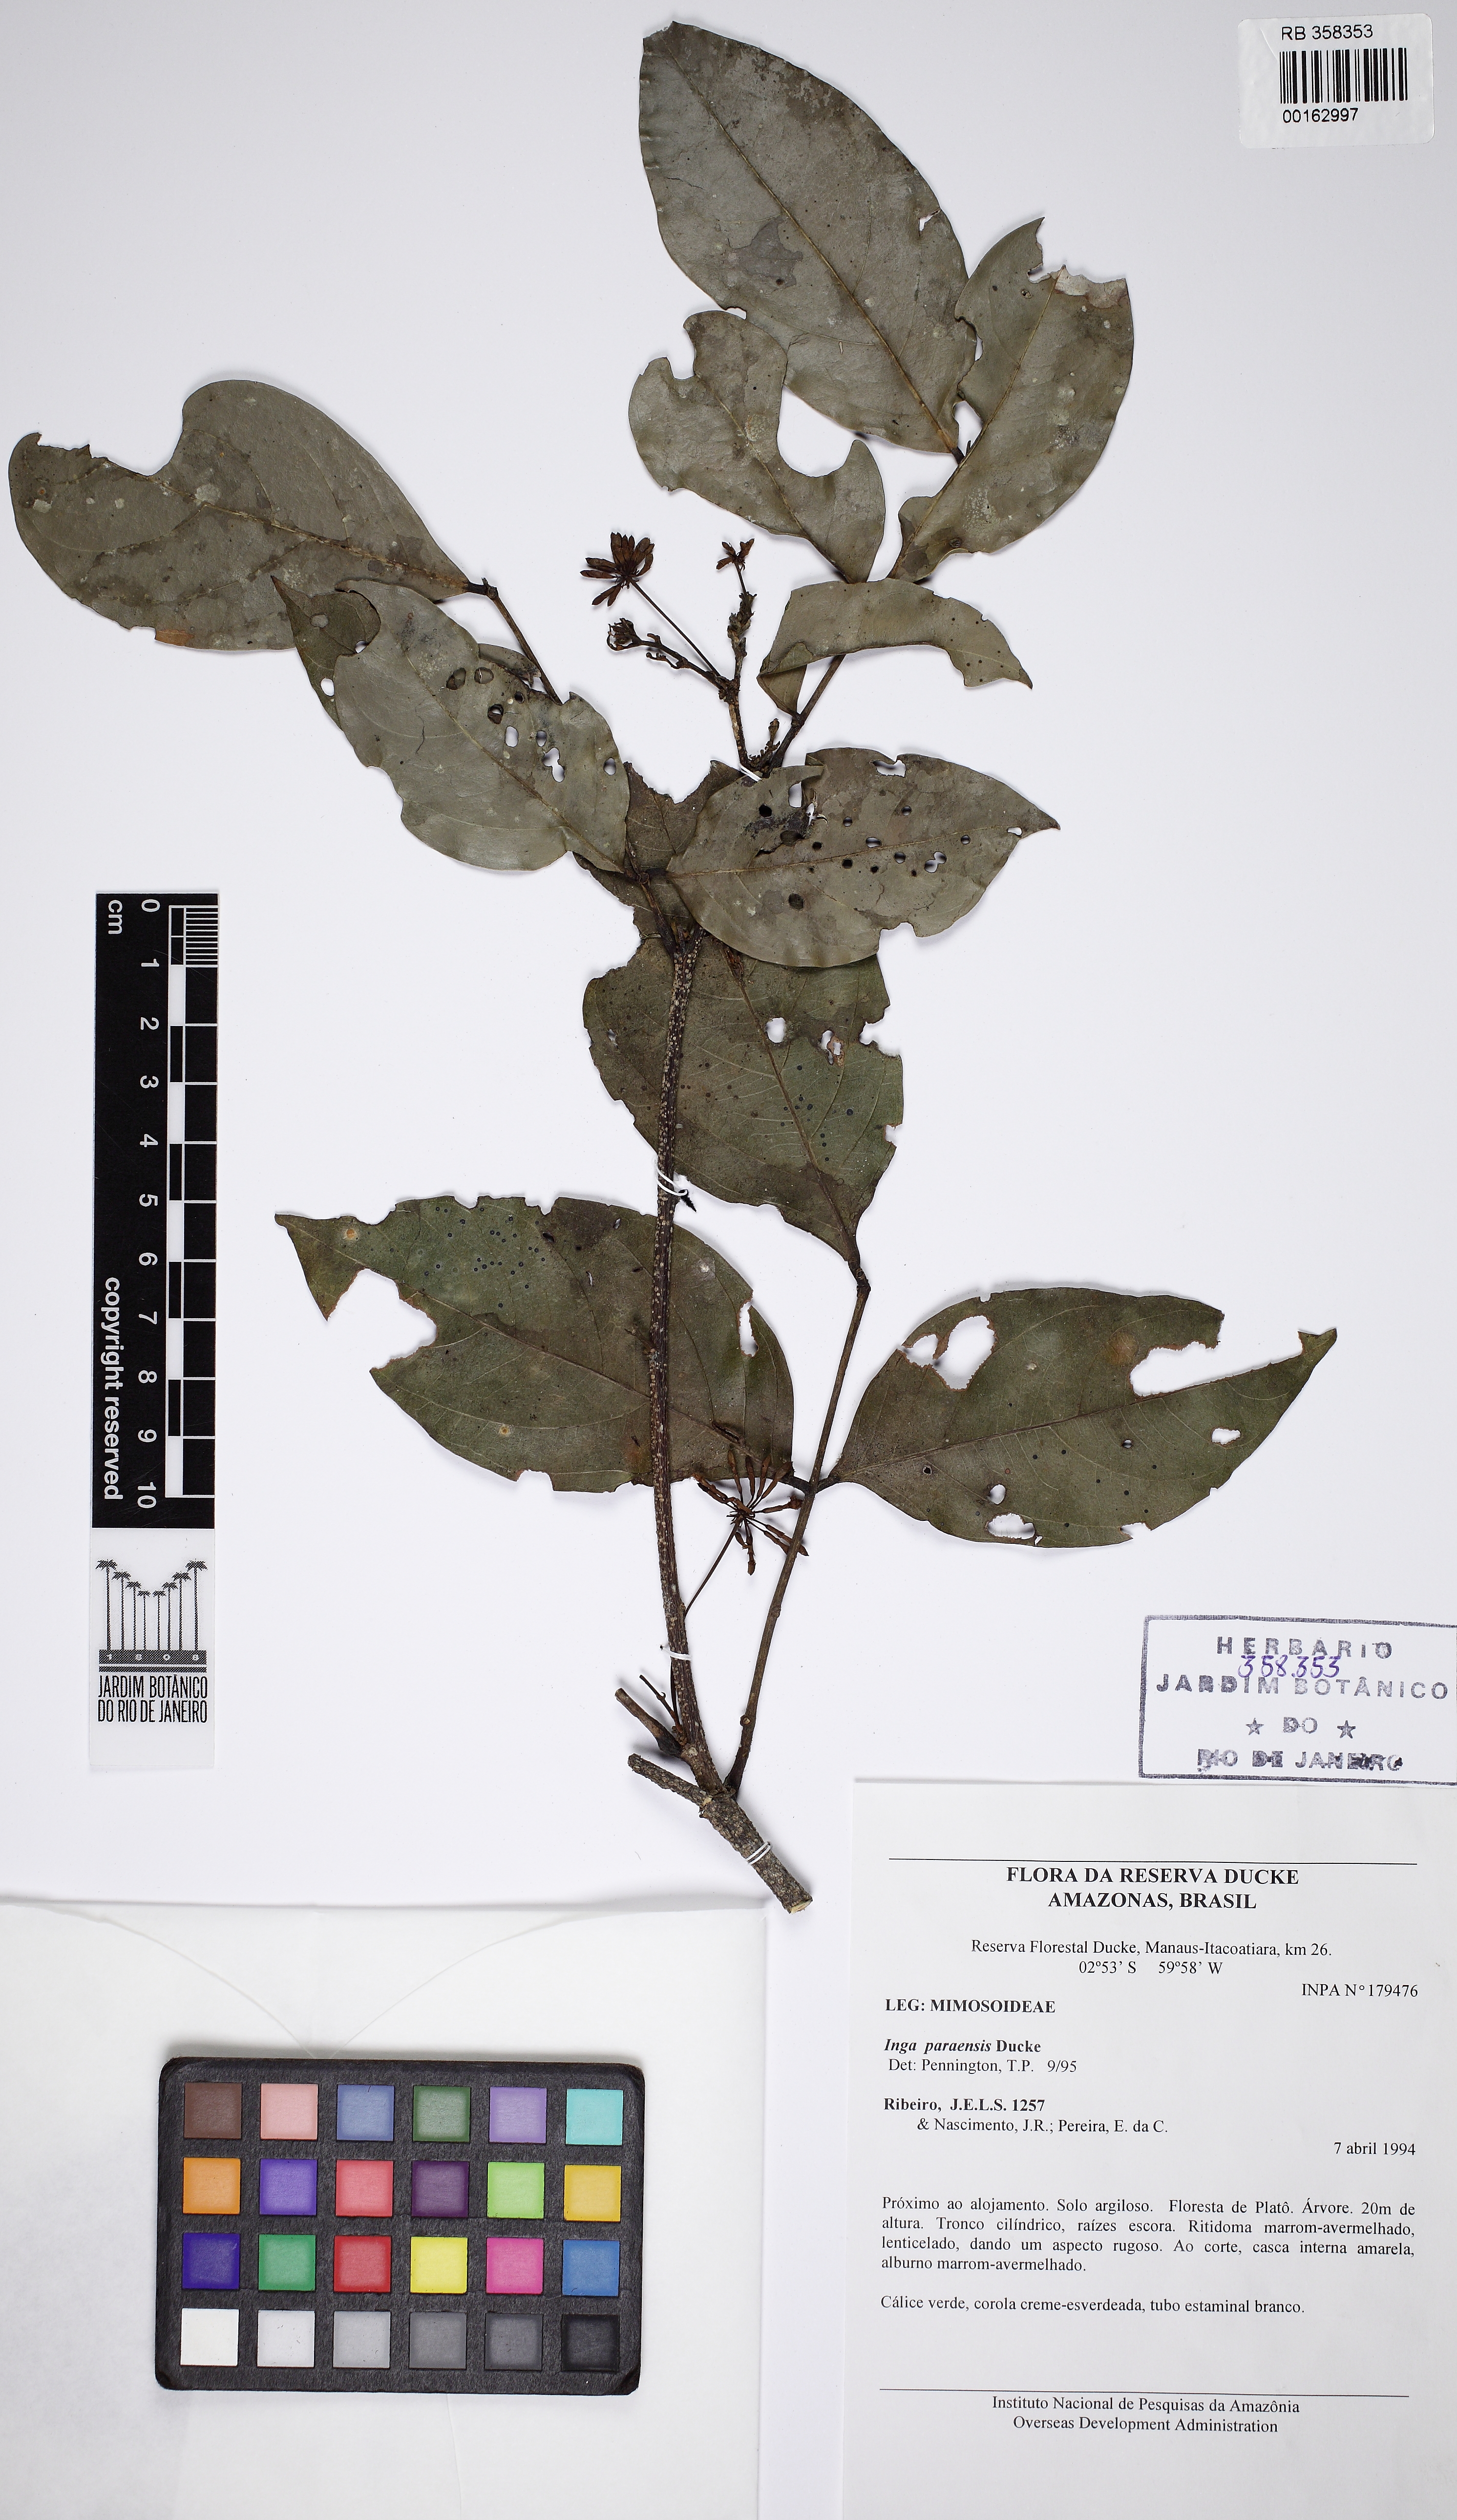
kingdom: Plantae
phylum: Tracheophyta
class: Magnoliopsida
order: Fabales
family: Fabaceae
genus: Inga
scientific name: Inga paraensis
